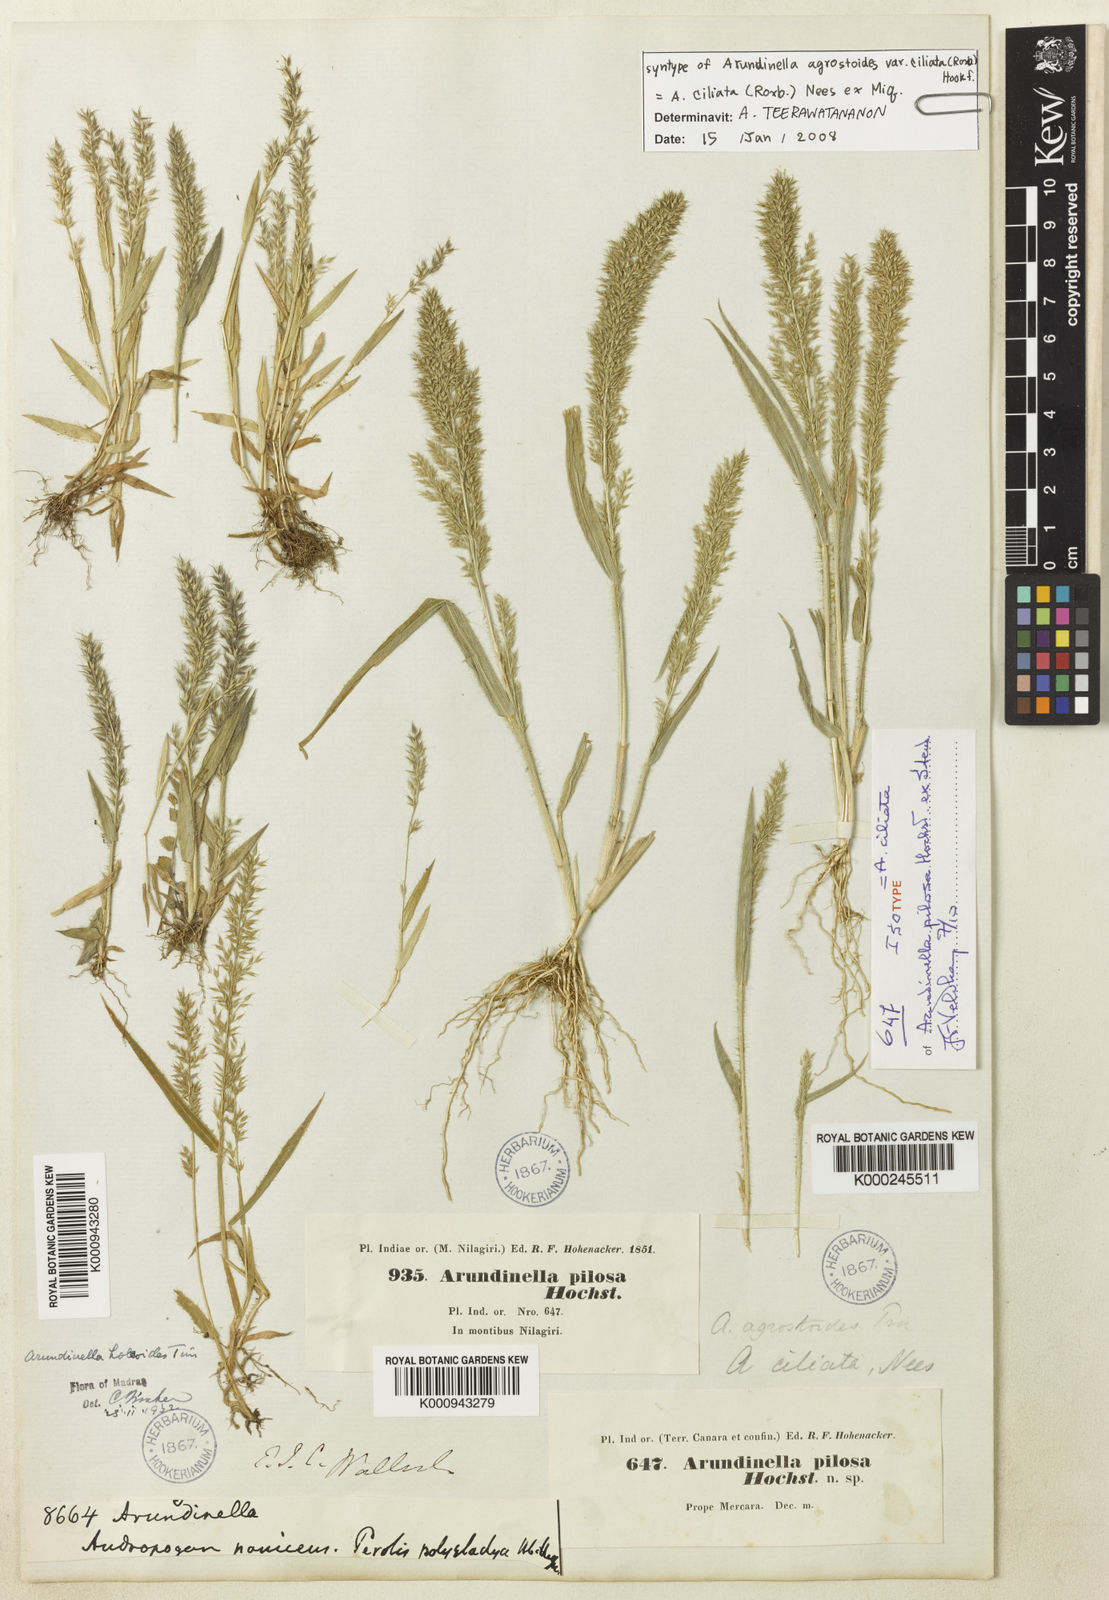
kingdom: Plantae
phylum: Tracheophyta
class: Liliopsida
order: Poales
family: Poaceae
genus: Arundinella
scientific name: Arundinella ciliata
